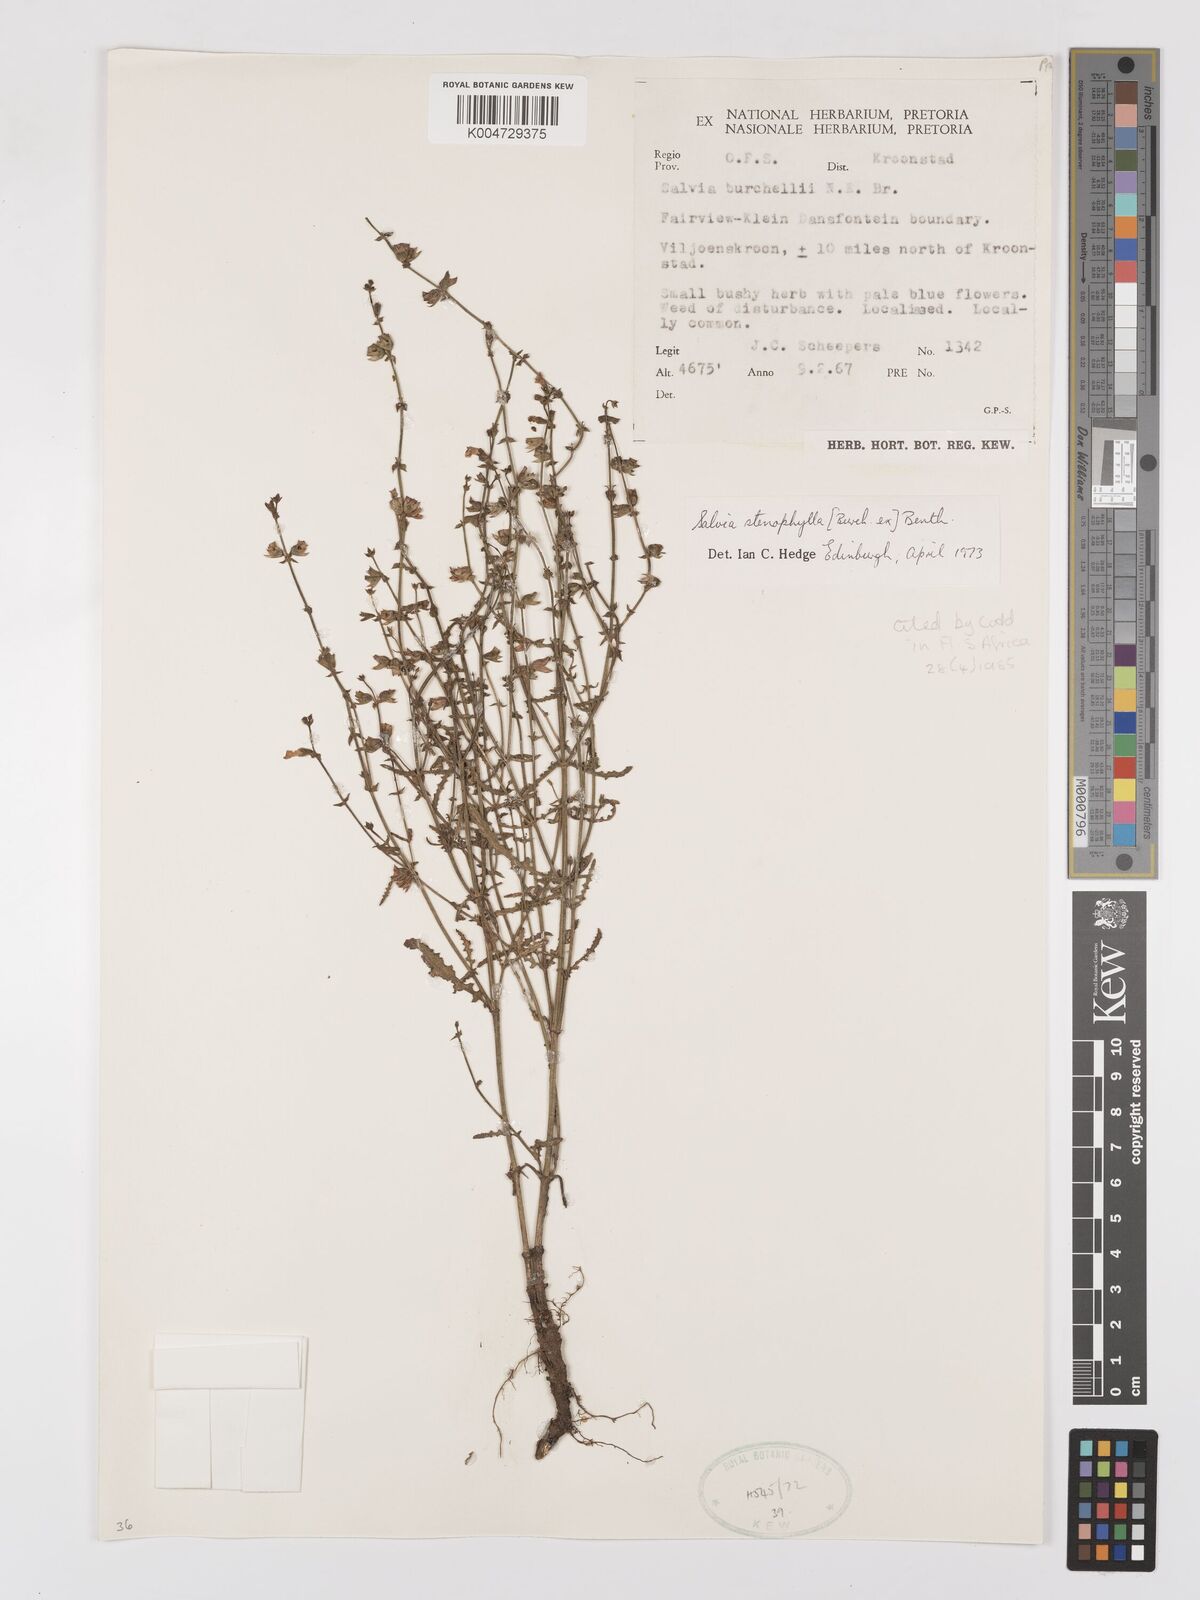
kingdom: Plantae
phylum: Tracheophyta
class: Magnoliopsida
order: Lamiales
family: Lamiaceae
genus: Salvia
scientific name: Salvia stenophylla
